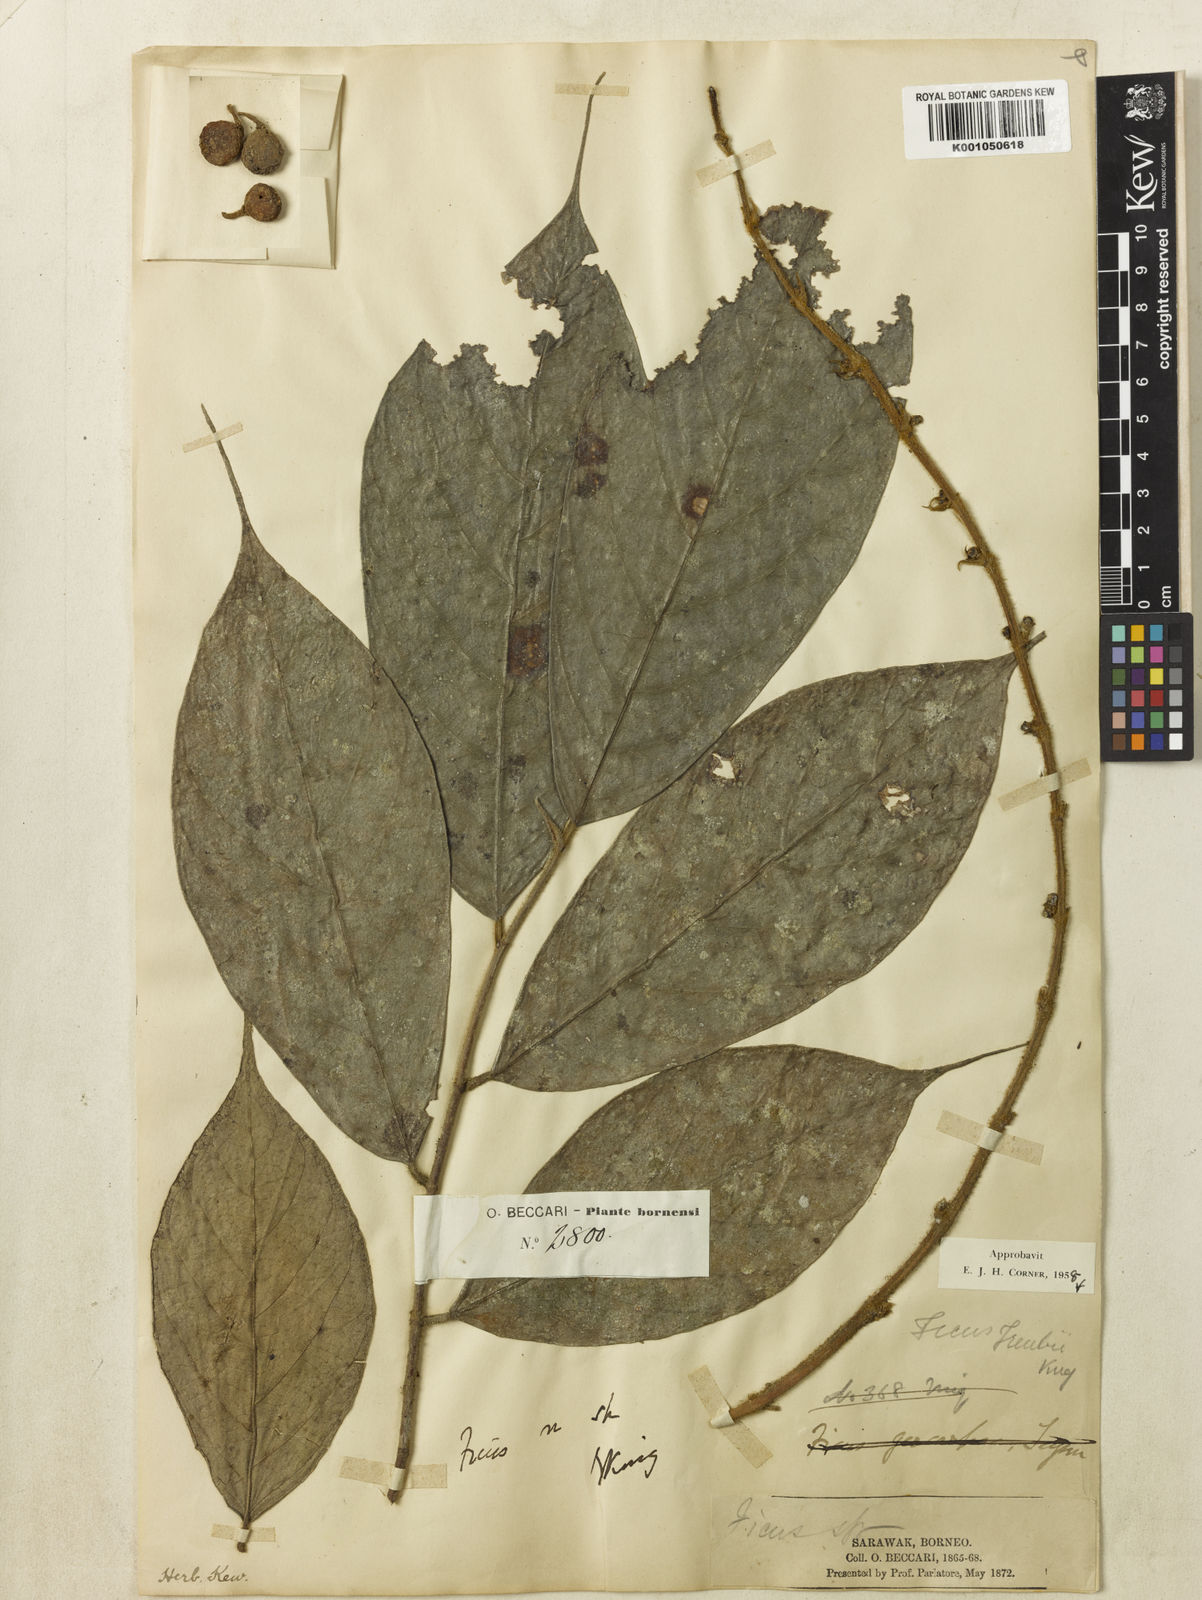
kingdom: Plantae
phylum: Tracheophyta
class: Magnoliopsida
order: Rosales
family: Moraceae
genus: Ficus
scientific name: Ficus treubii
